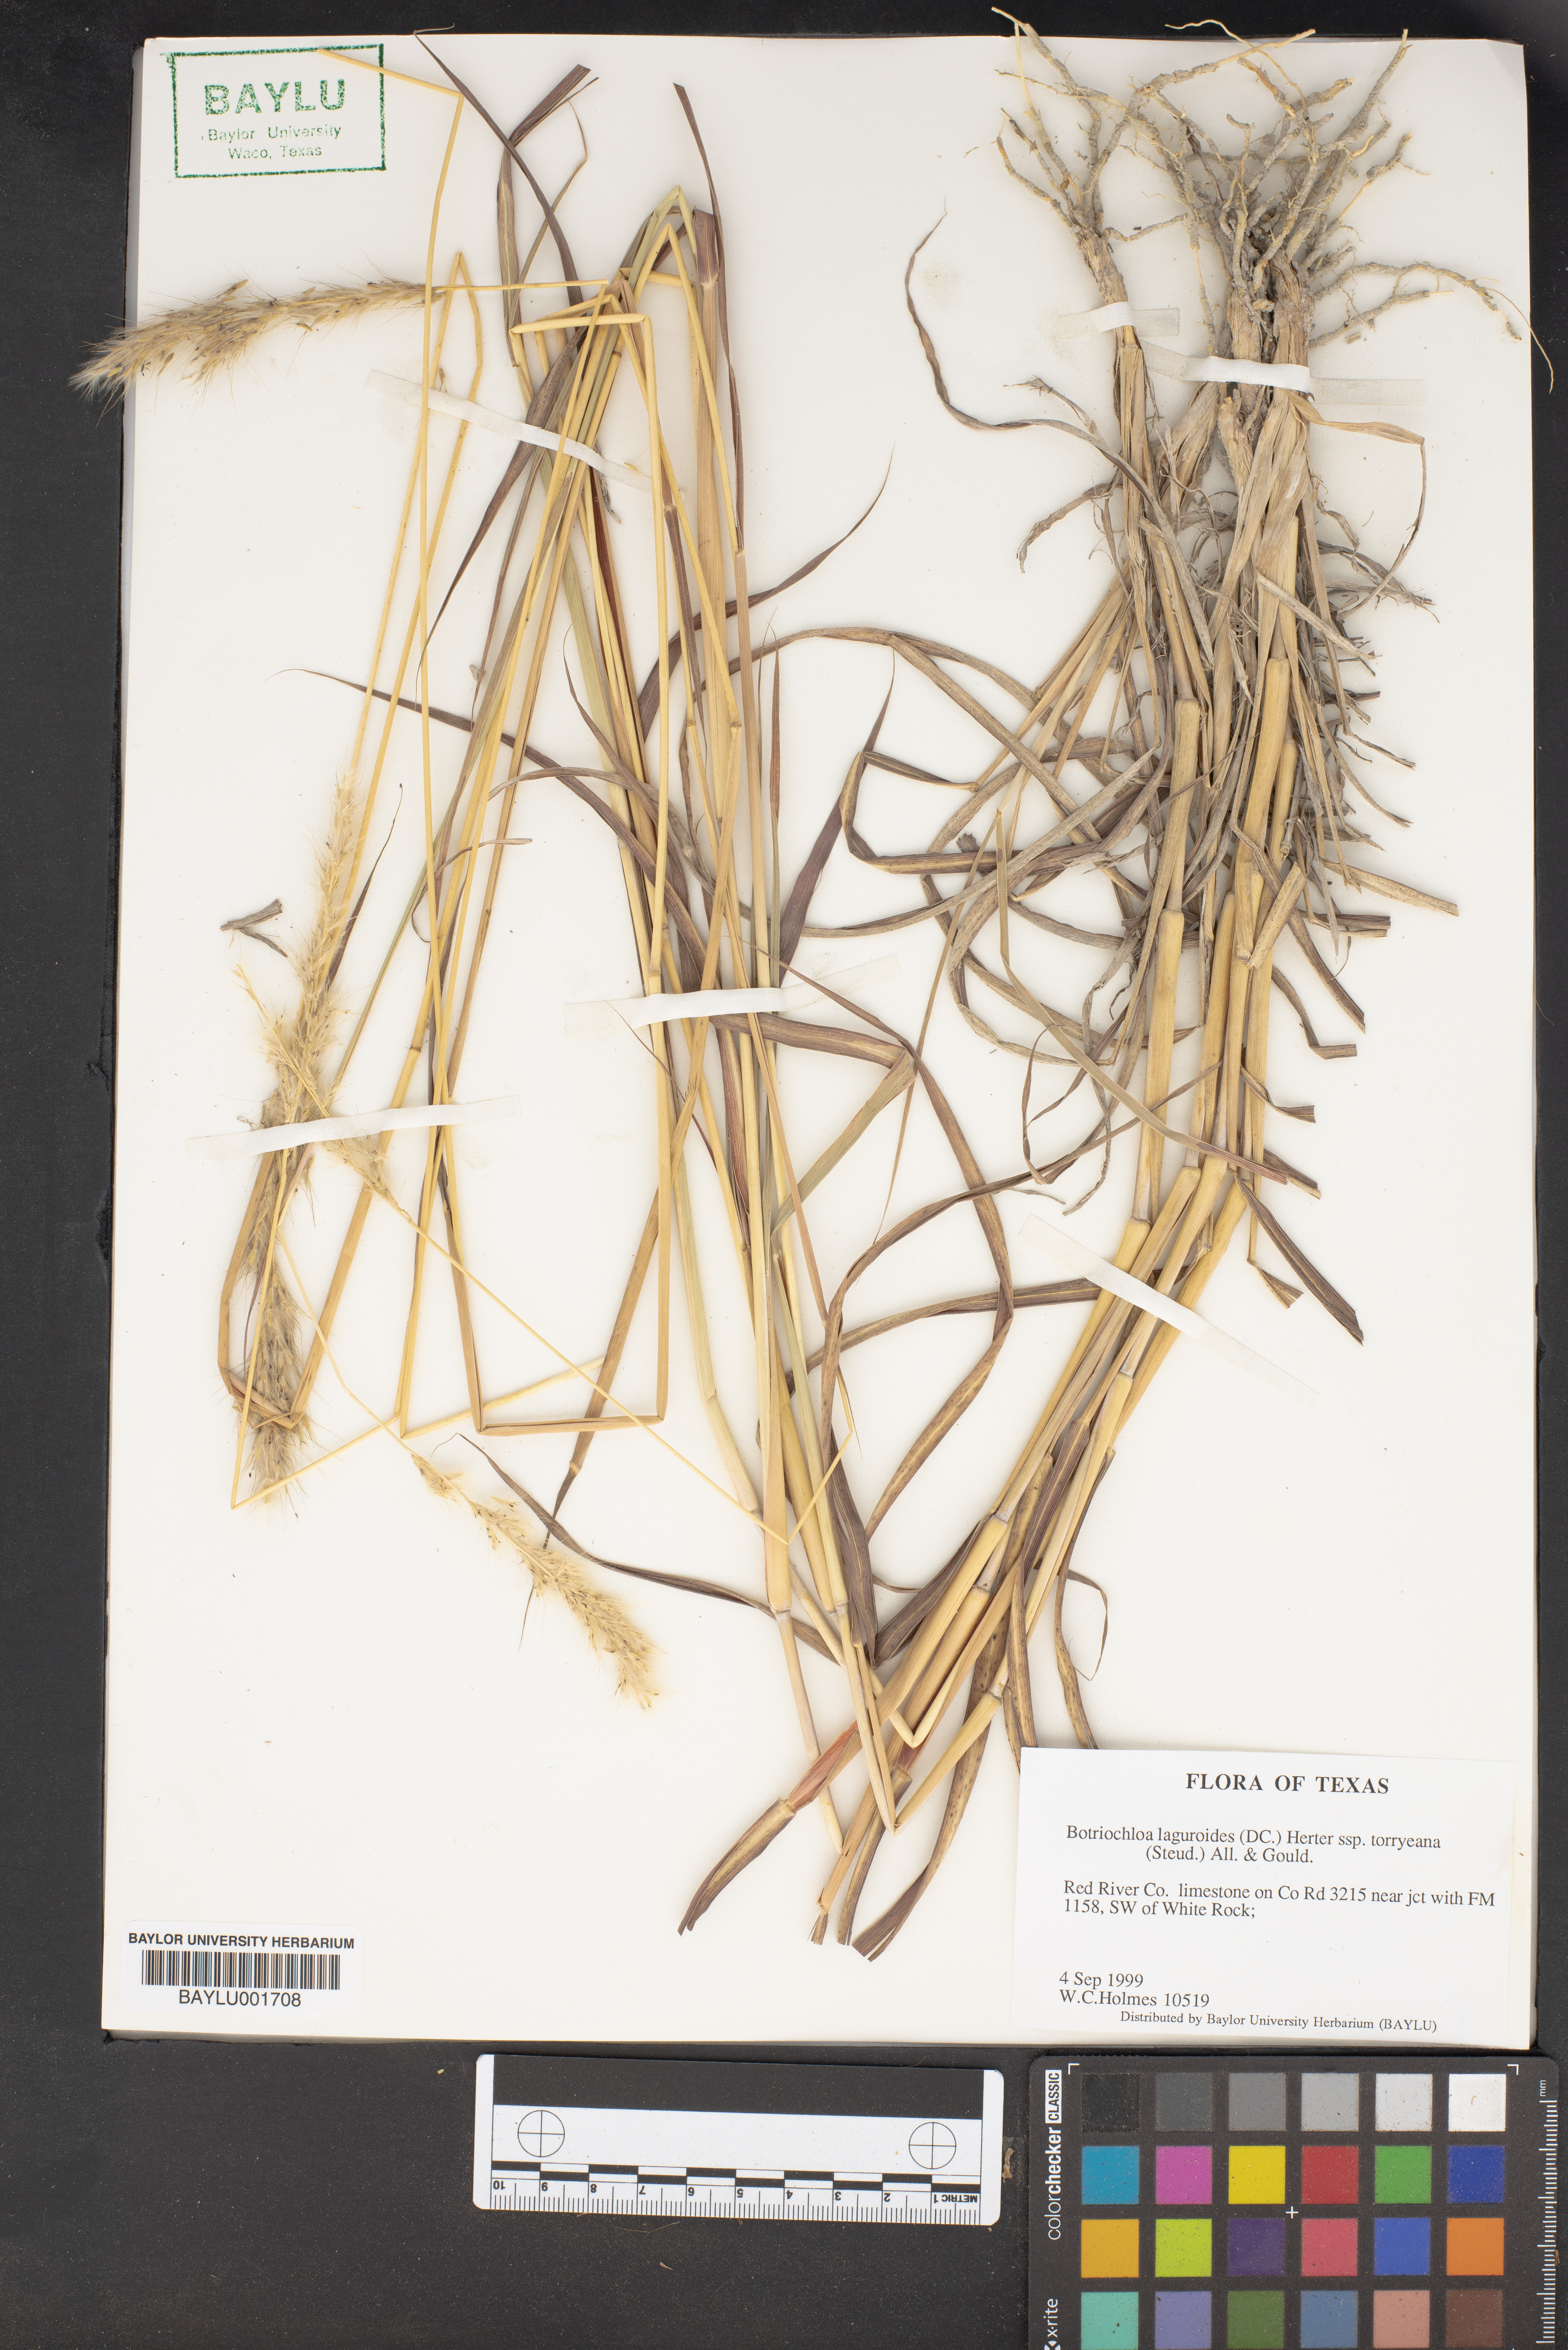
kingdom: Plantae
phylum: Tracheophyta
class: Liliopsida
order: Poales
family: Poaceae
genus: Bothriochloa
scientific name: Bothriochloa laguroides
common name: Silver bluestem
